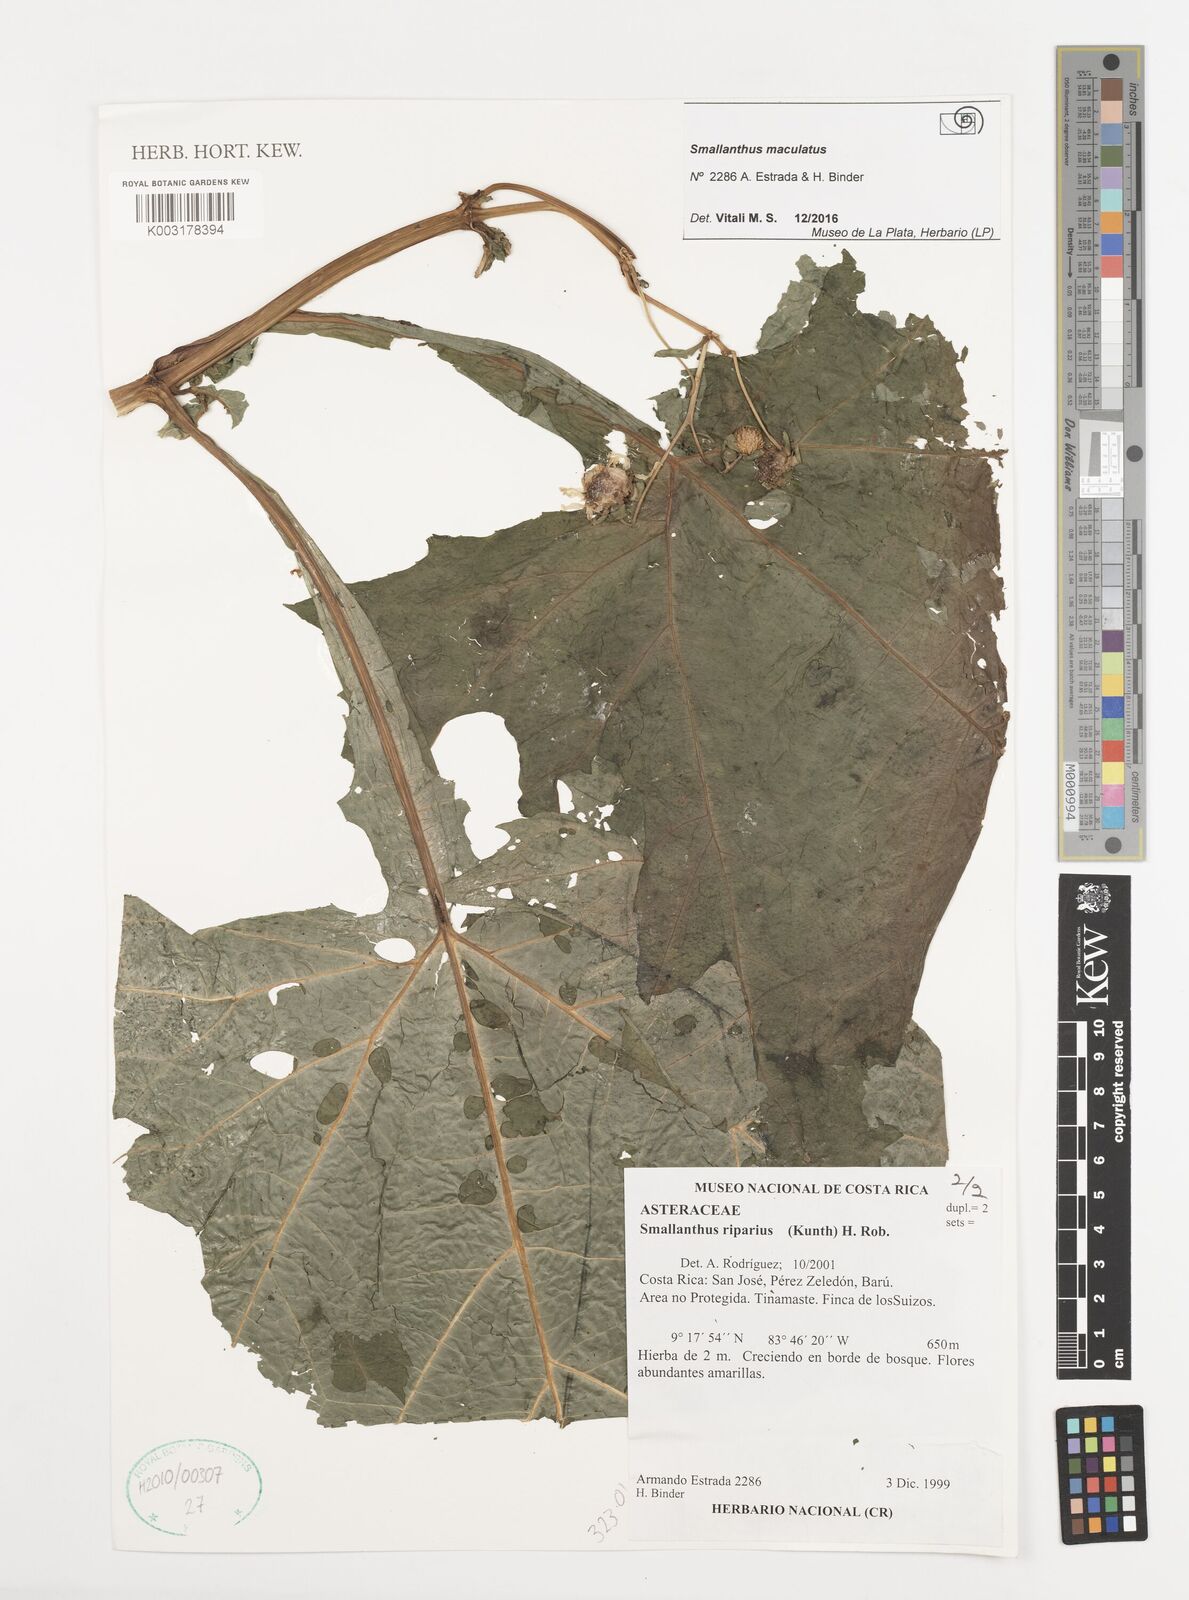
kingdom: Plantae
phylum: Tracheophyta
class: Magnoliopsida
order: Asterales
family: Asteraceae
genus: Smallanthus
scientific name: Smallanthus maculatus
